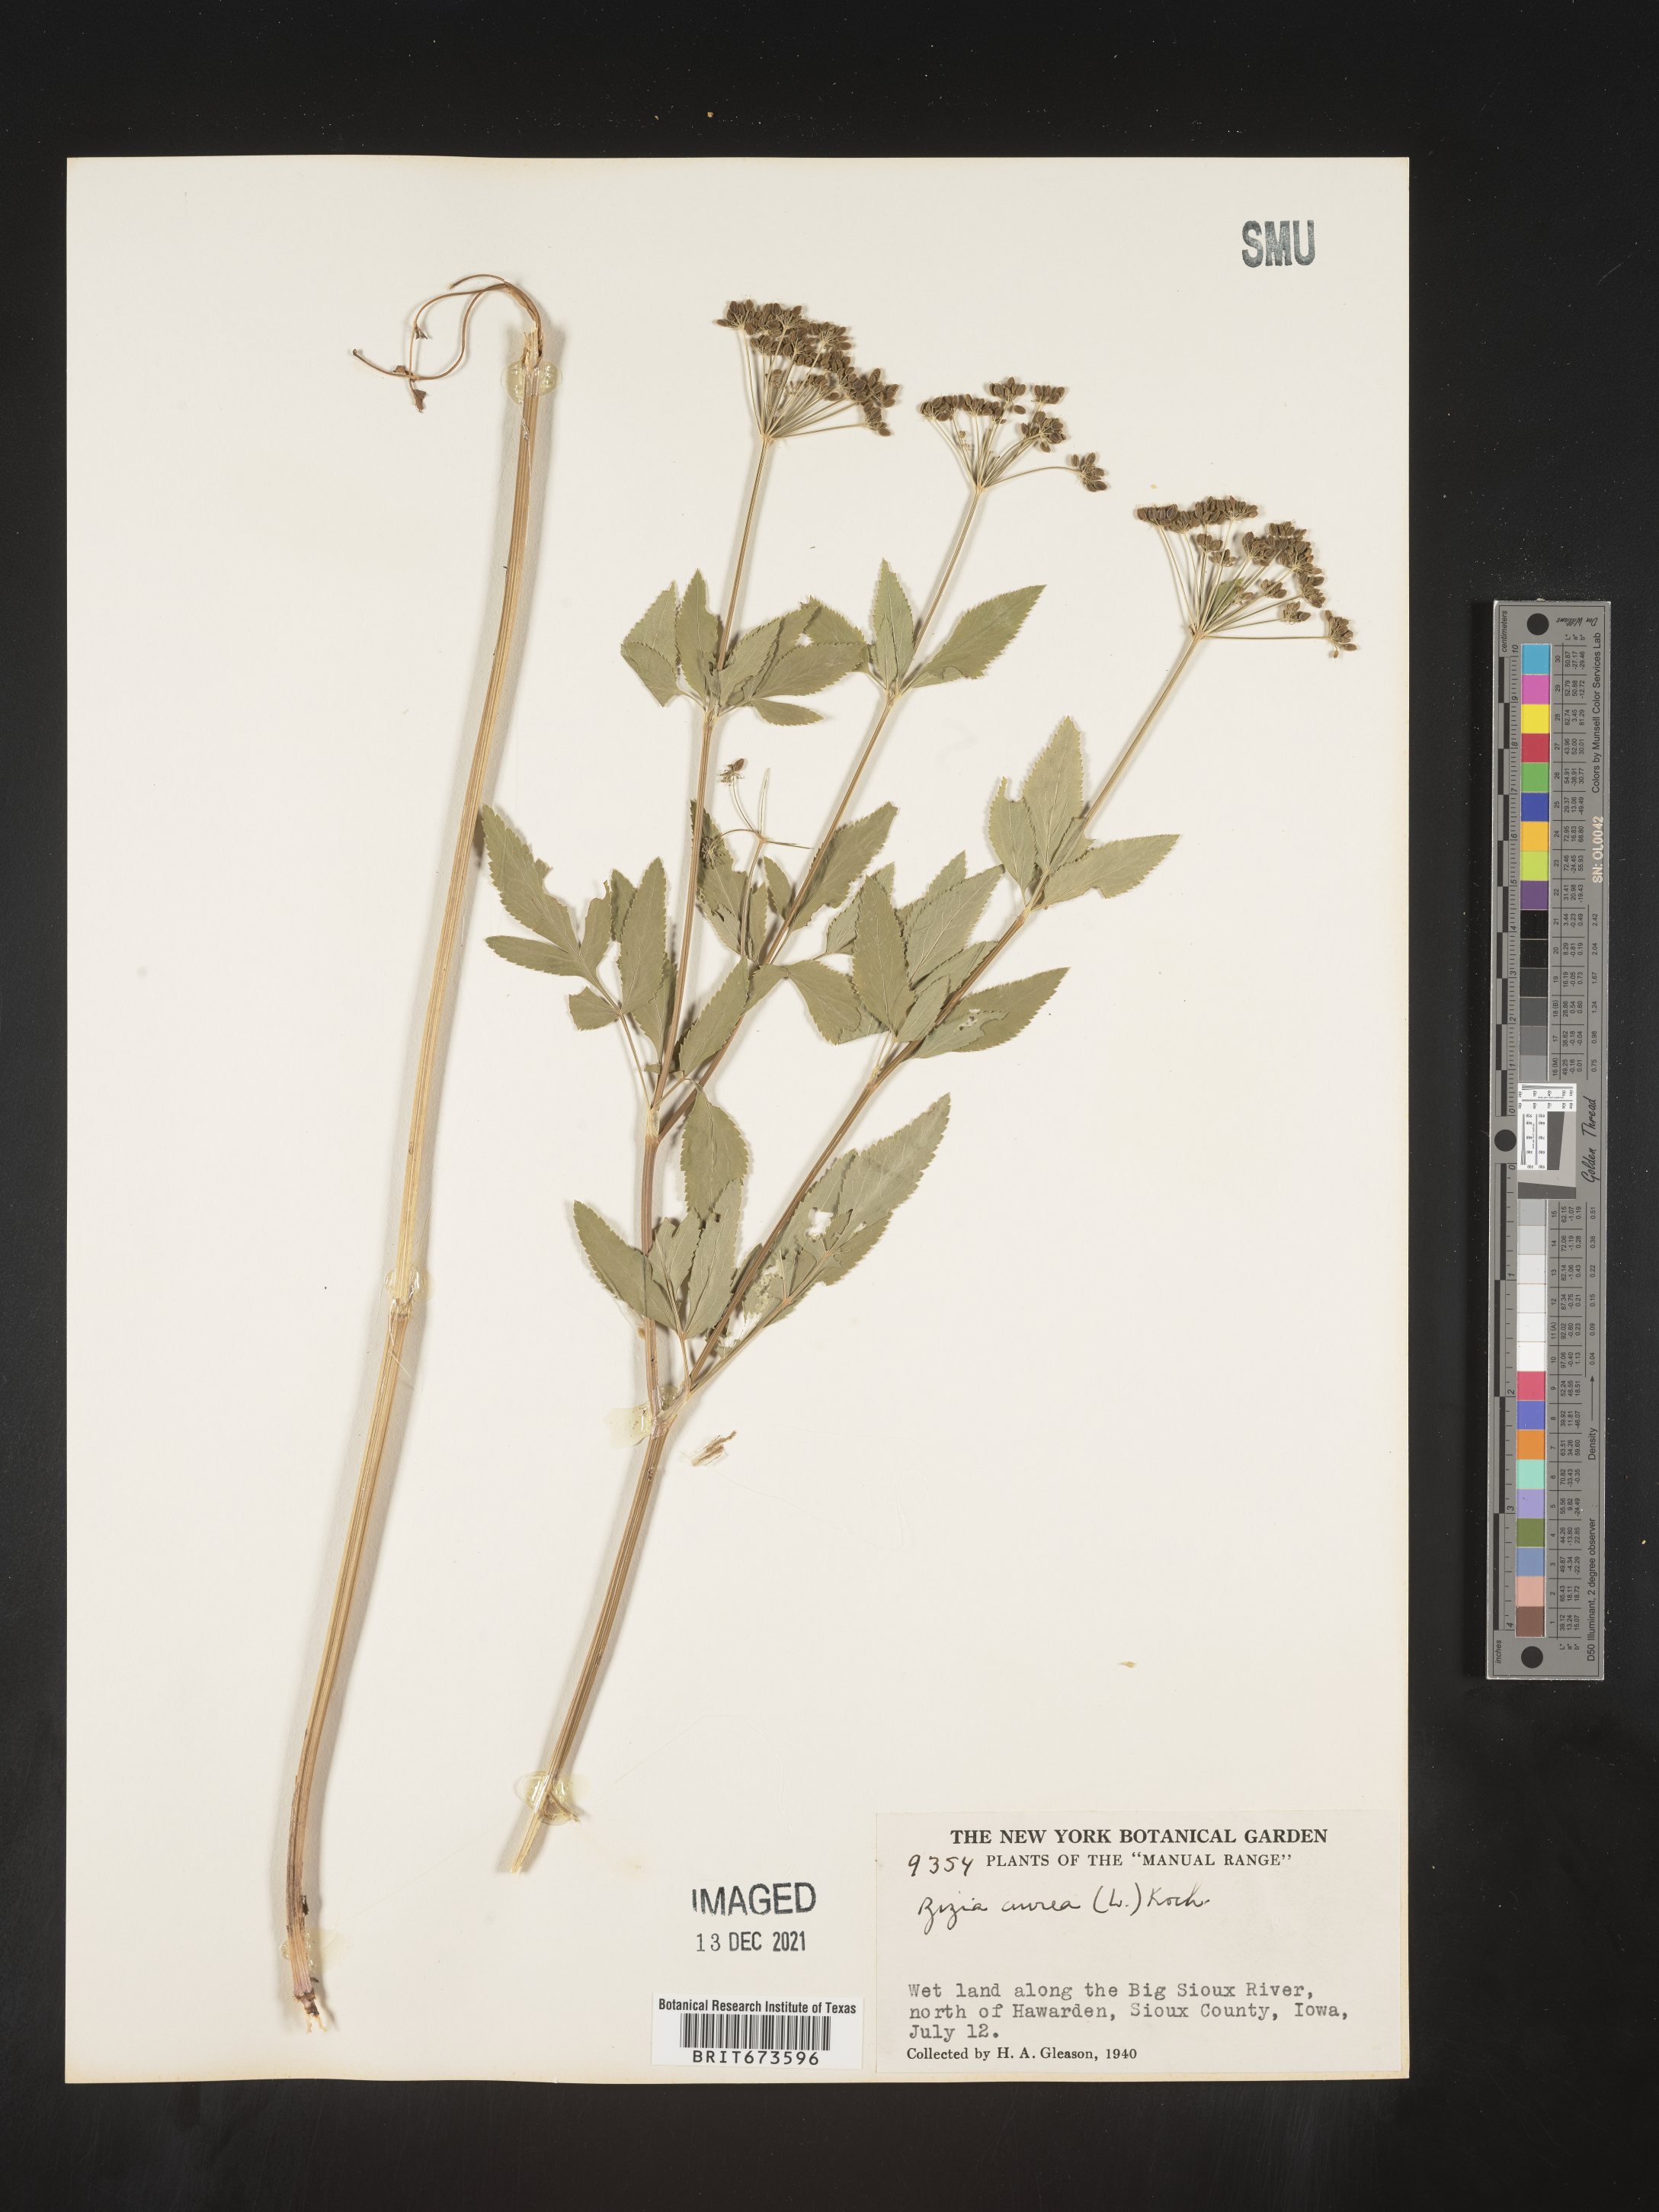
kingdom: Plantae
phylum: Tracheophyta
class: Magnoliopsida
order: Apiales
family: Apiaceae
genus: Zizia
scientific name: Zizia aurea
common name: Golden alexanders
